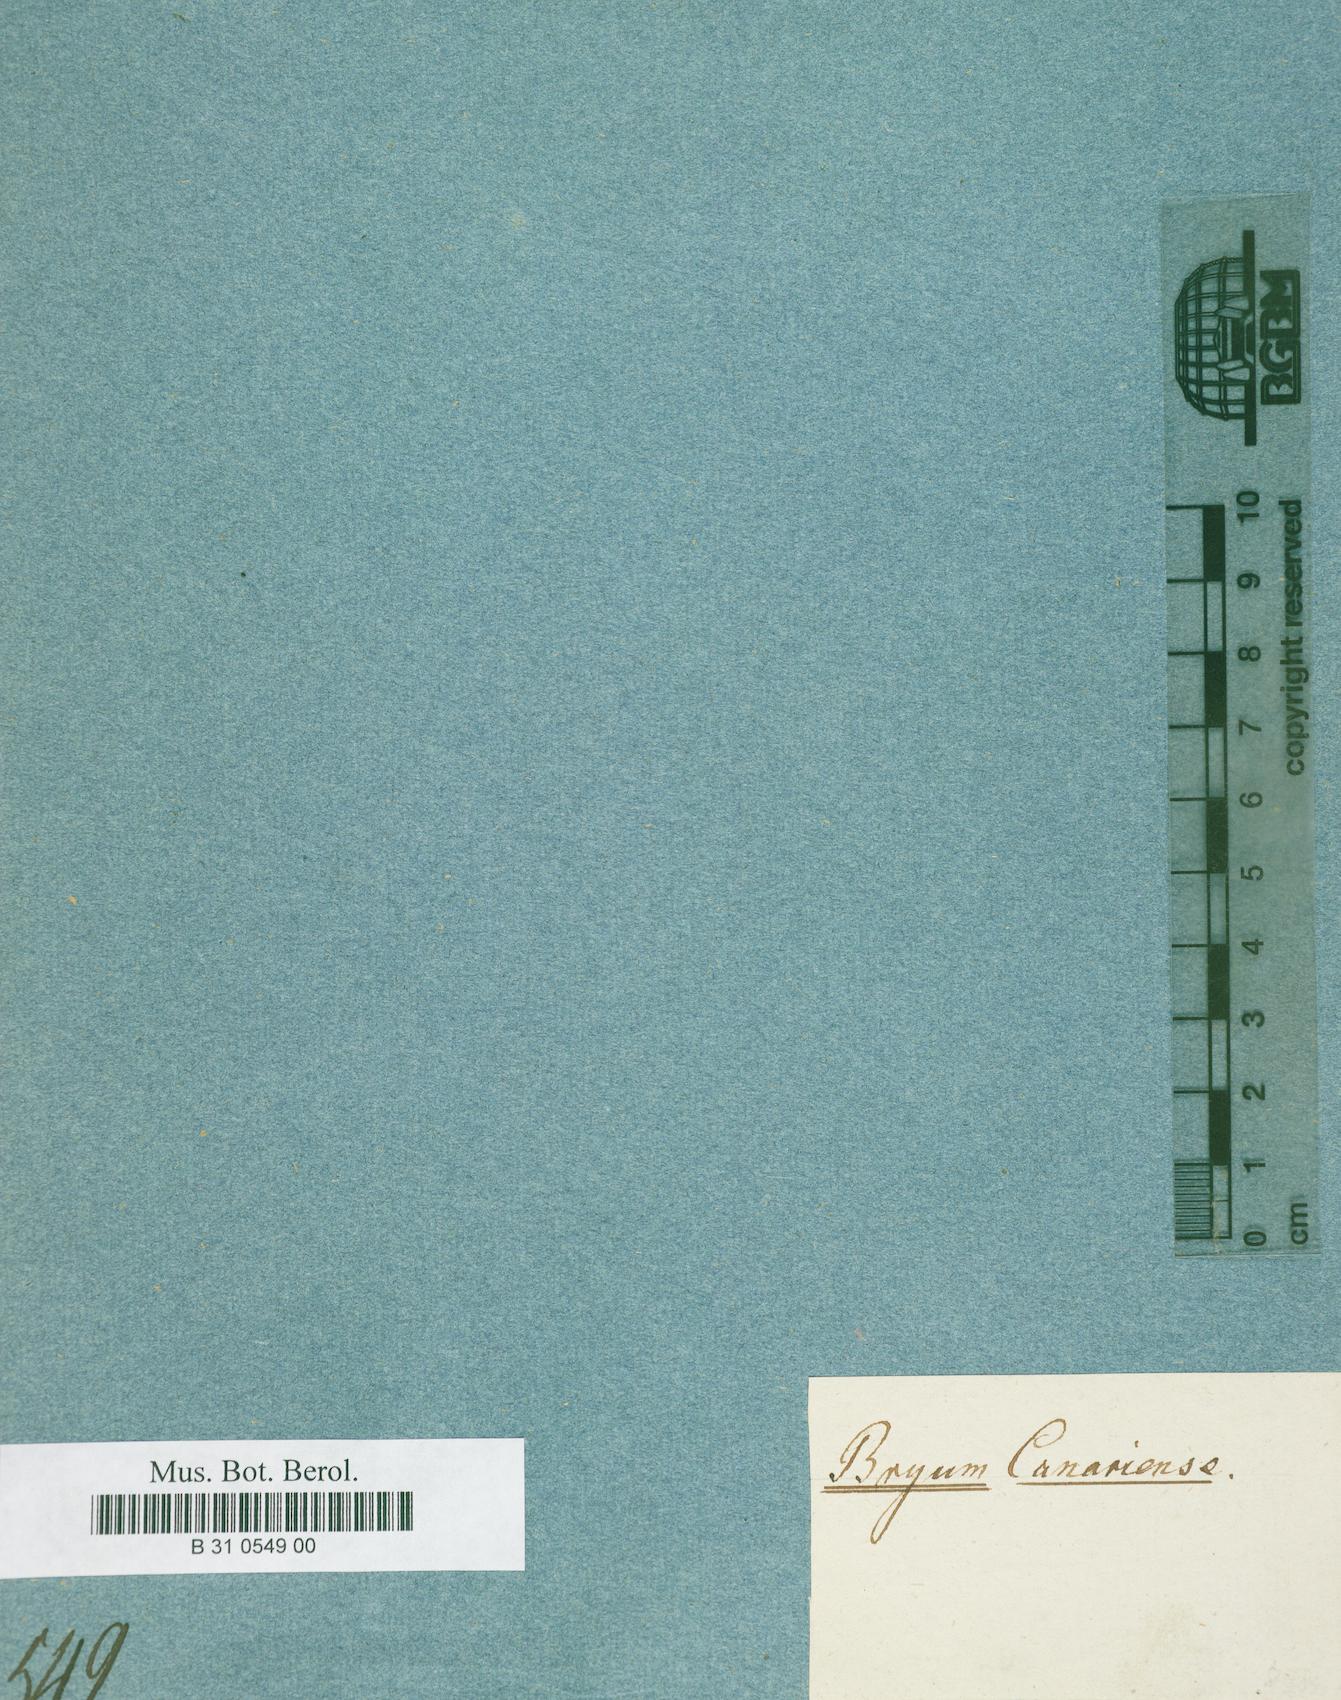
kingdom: Plantae
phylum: Bryophyta
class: Bryopsida
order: Bryales
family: Bryaceae
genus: Rosulabryum
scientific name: Rosulabryum canariense
